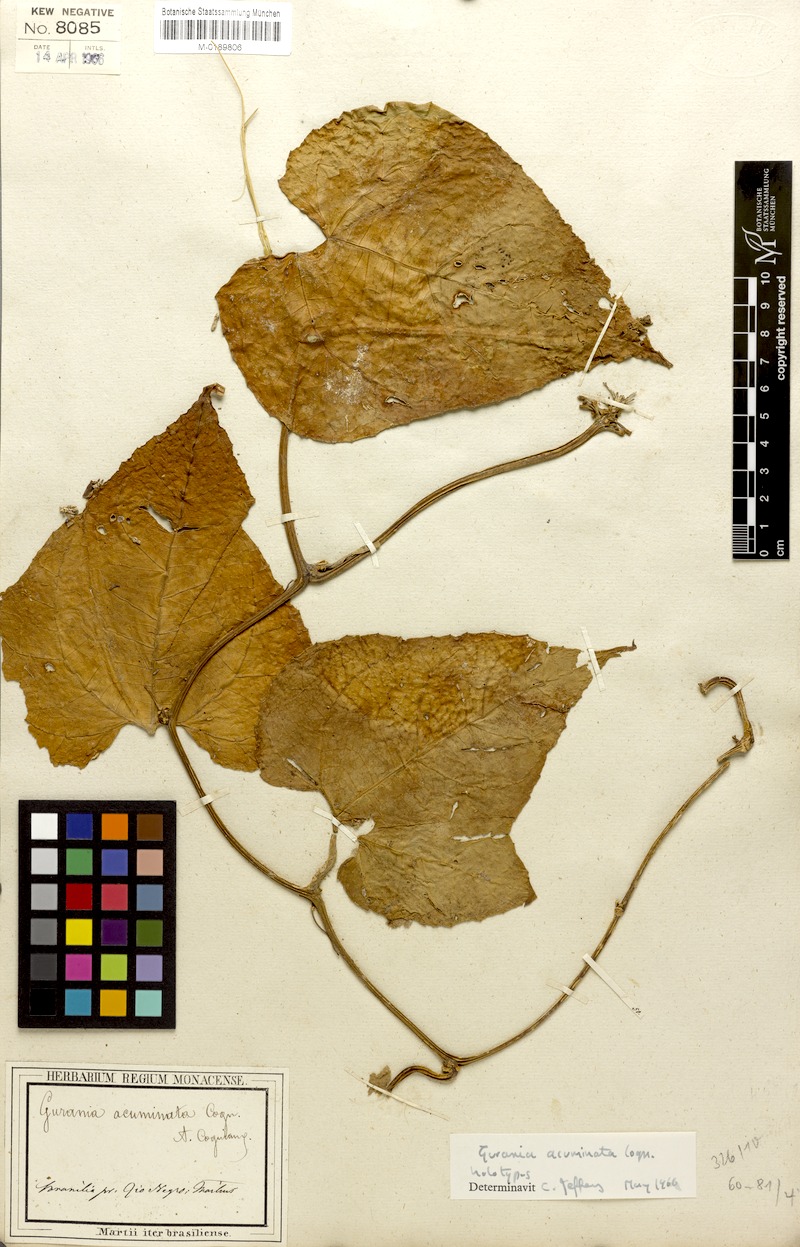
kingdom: Plantae
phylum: Tracheophyta
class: Magnoliopsida
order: Cucurbitales
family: Cucurbitaceae
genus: Gurania
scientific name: Gurania acuminata
